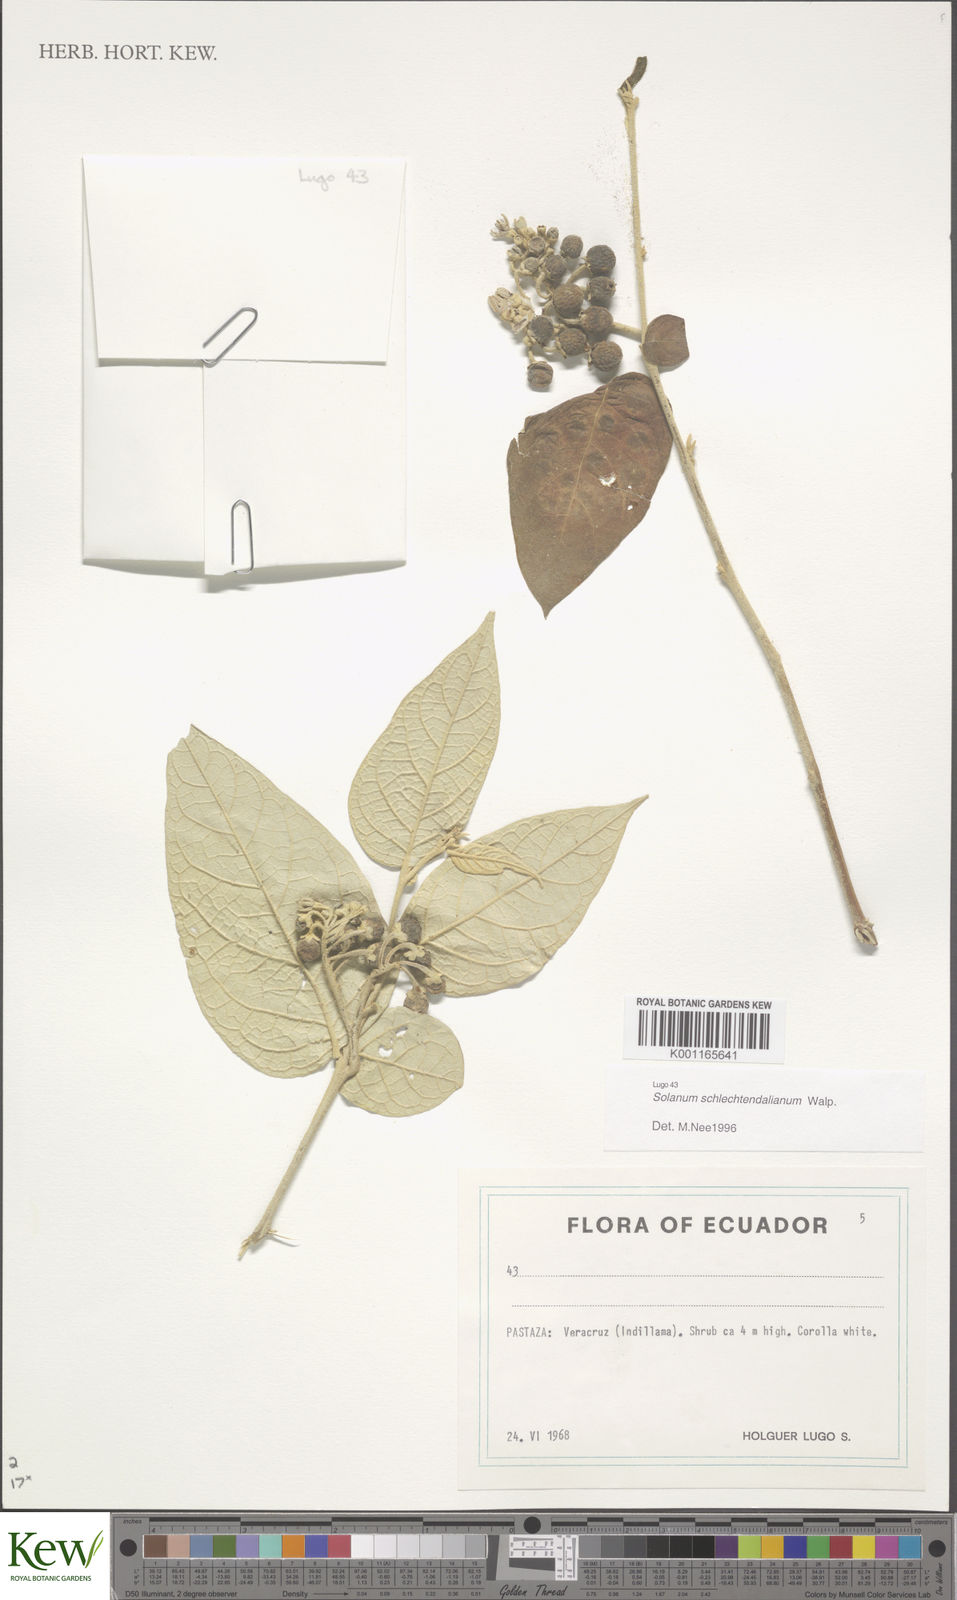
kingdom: Plantae
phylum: Tracheophyta
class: Magnoliopsida
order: Solanales
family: Solanaceae
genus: Solanum
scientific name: Solanum schlechtendalianum
